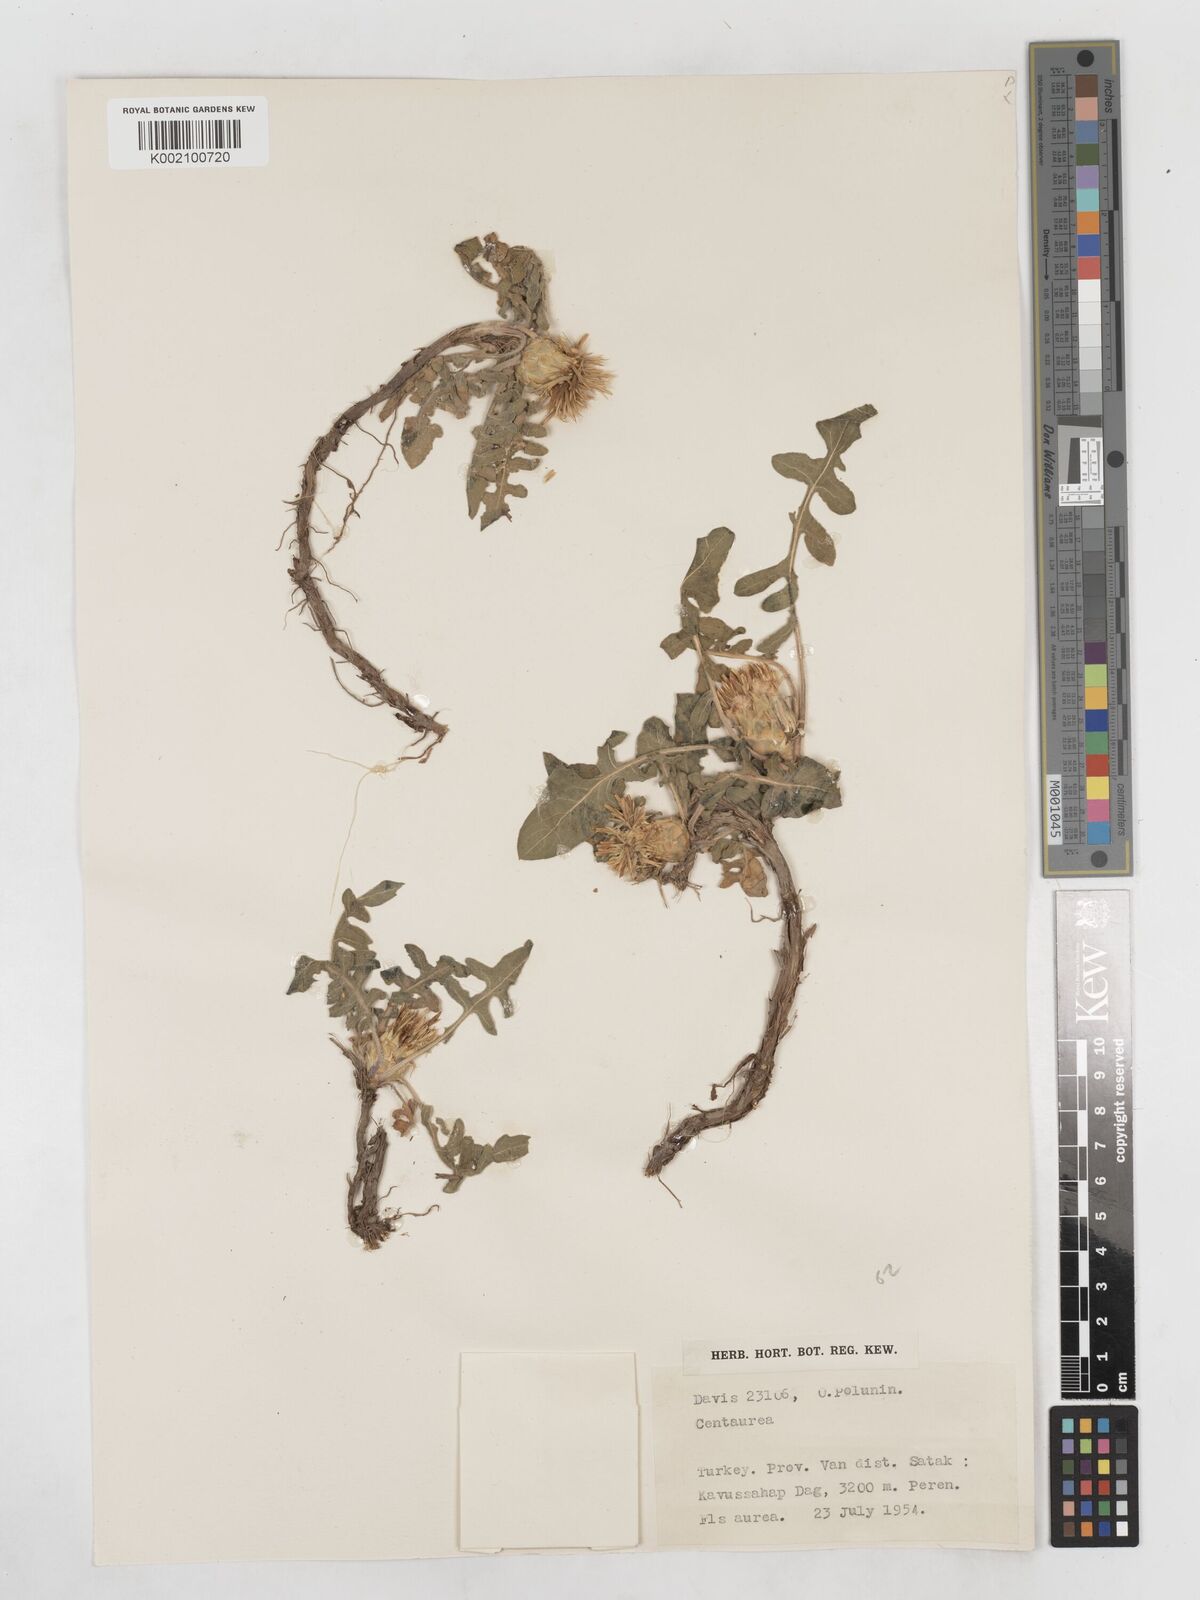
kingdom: Plantae
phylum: Tracheophyta
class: Magnoliopsida
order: Asterales
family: Asteraceae
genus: Centaurea
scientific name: Centaurea rhizantha
